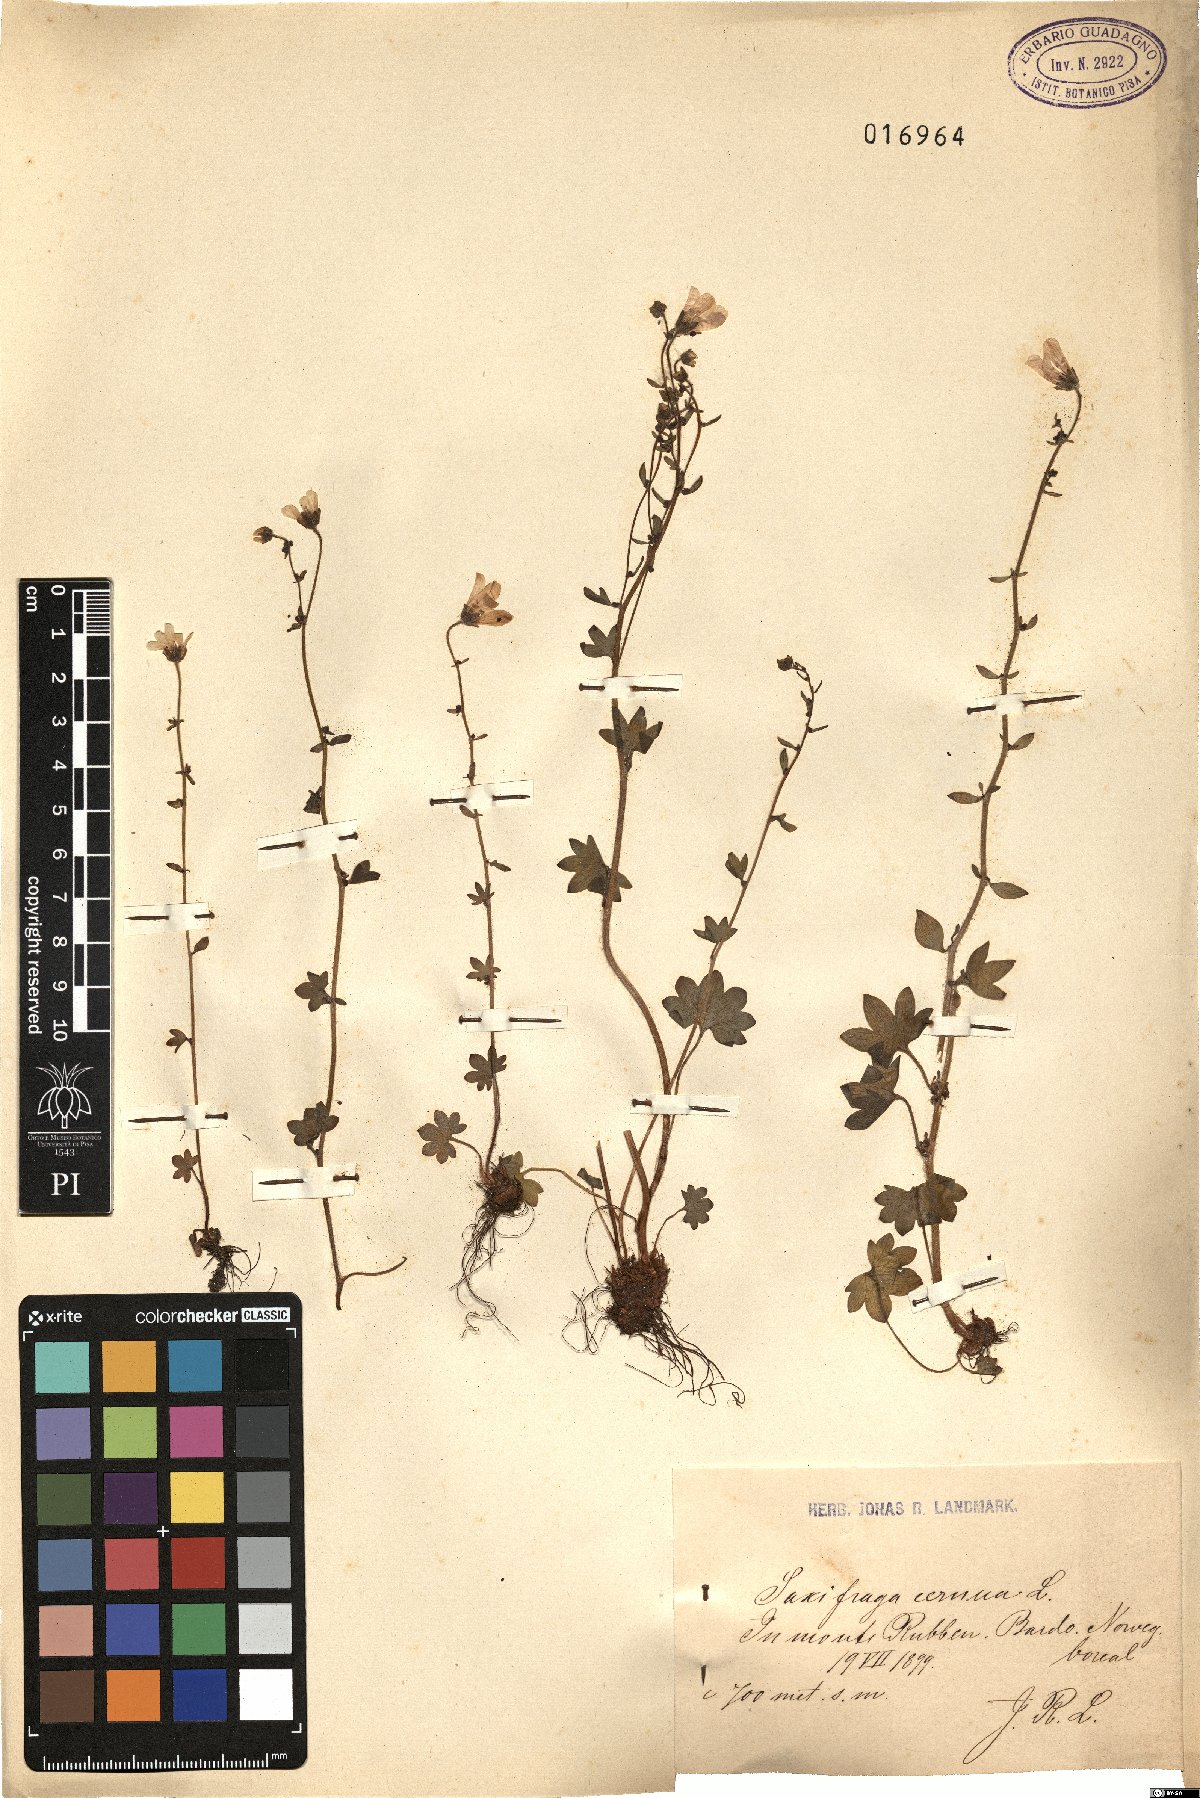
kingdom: Plantae
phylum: Tracheophyta
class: Magnoliopsida
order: Saxifragales
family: Saxifragaceae
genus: Saxifraga
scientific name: Saxifraga cernua
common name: Drooping saxifrage
